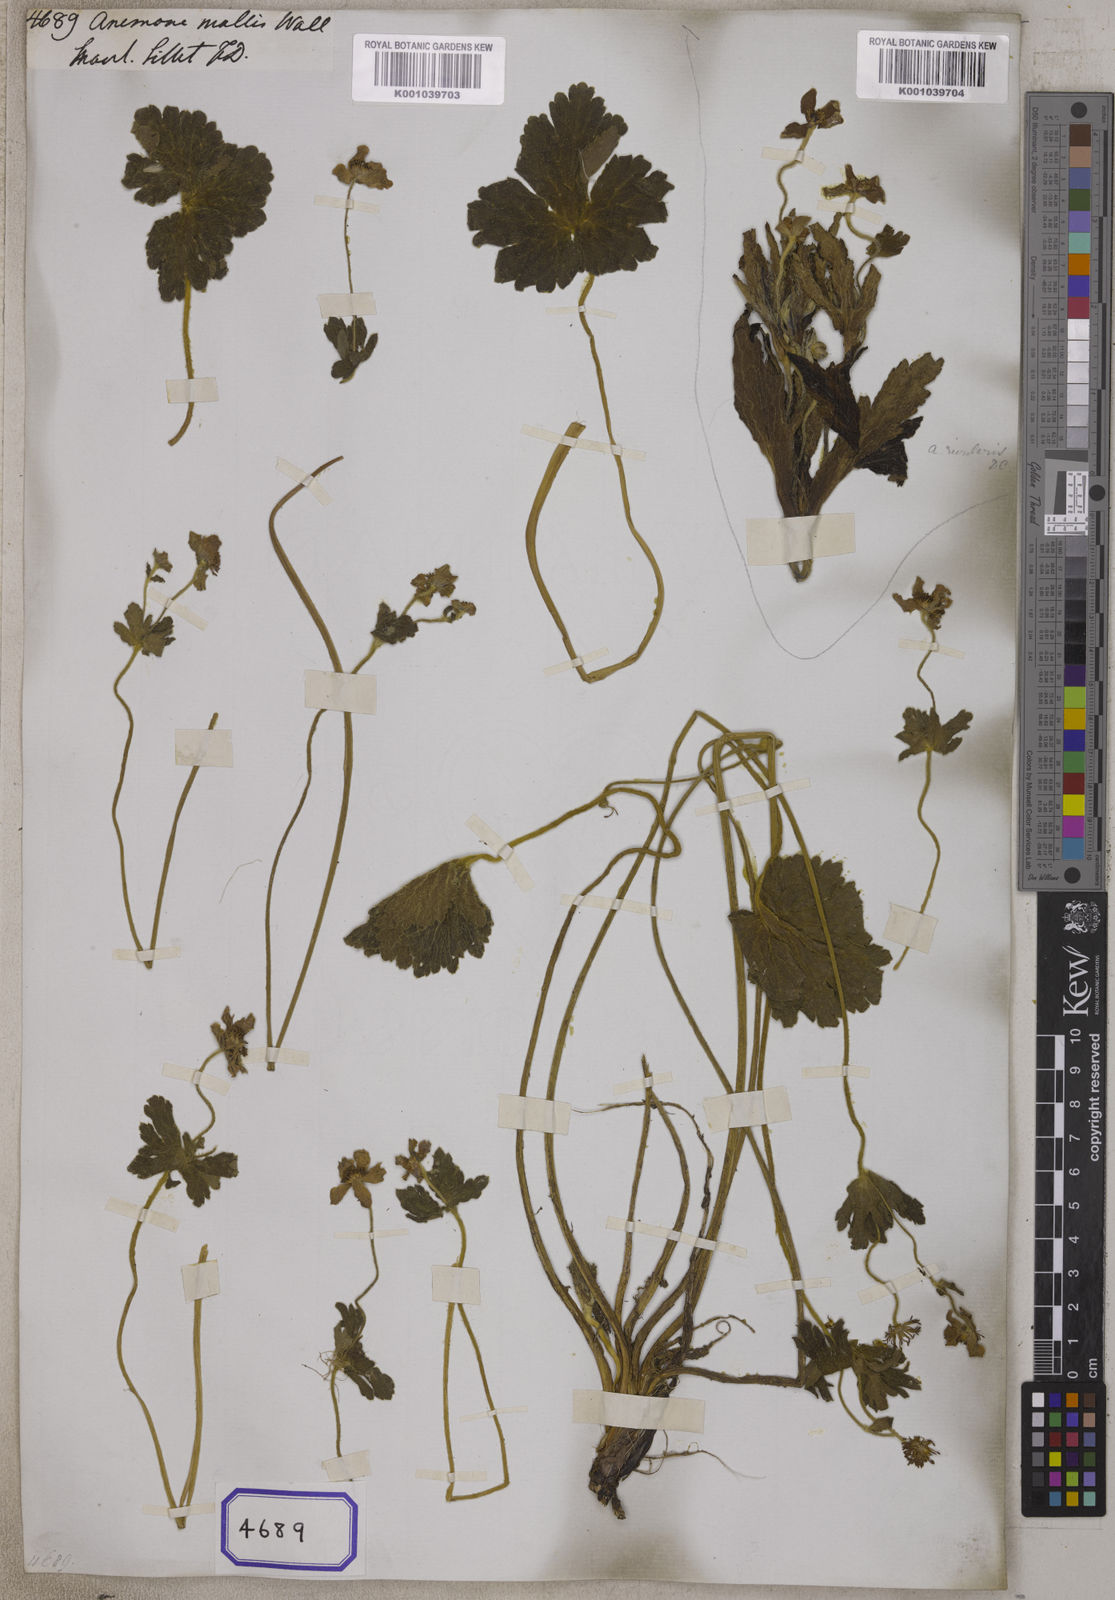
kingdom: Plantae
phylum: Tracheophyta
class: Magnoliopsida
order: Ranunculales
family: Ranunculaceae
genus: Anemonastrum
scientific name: Anemonastrum obtusilobum
